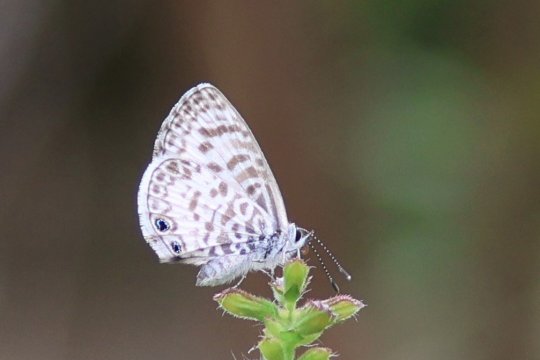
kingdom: Animalia
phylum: Arthropoda
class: Insecta
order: Lepidoptera
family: Lycaenidae
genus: Leptotes
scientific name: Leptotes cassius
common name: Cassius Blue
